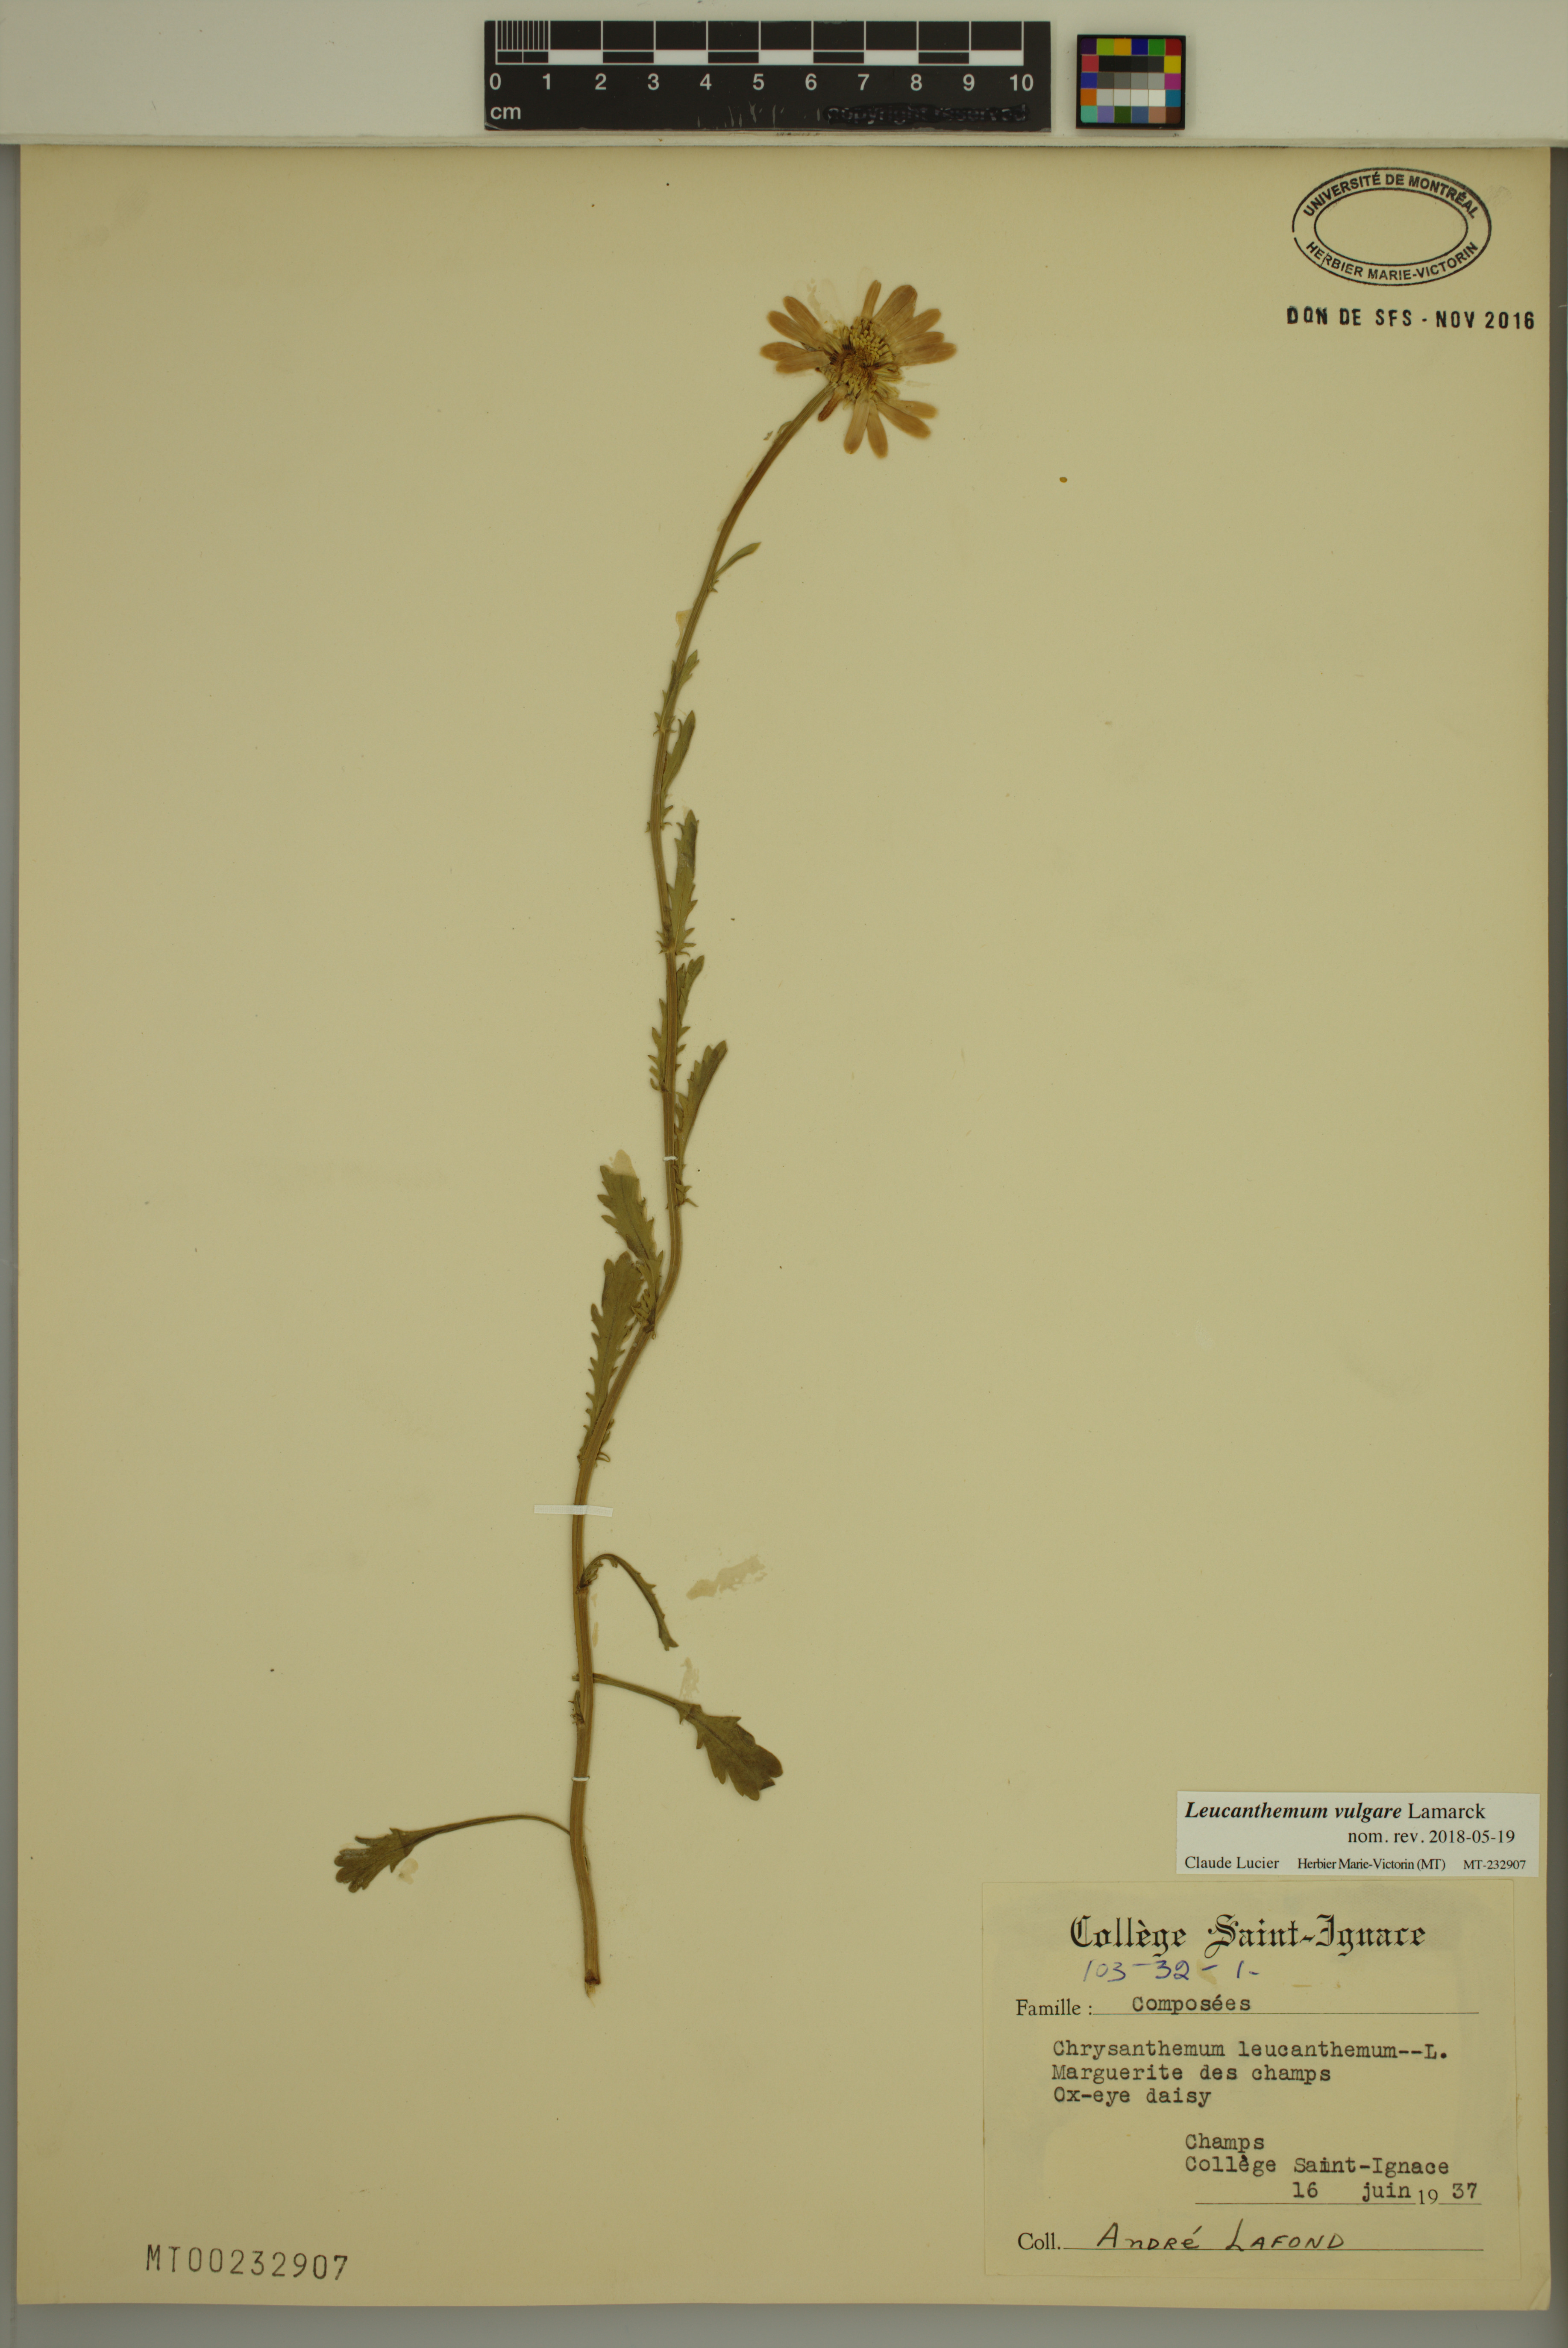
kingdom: Plantae
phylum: Tracheophyta
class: Magnoliopsida
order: Asterales
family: Asteraceae
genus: Leucanthemum
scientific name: Leucanthemum vulgare
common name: Oxeye daisy
